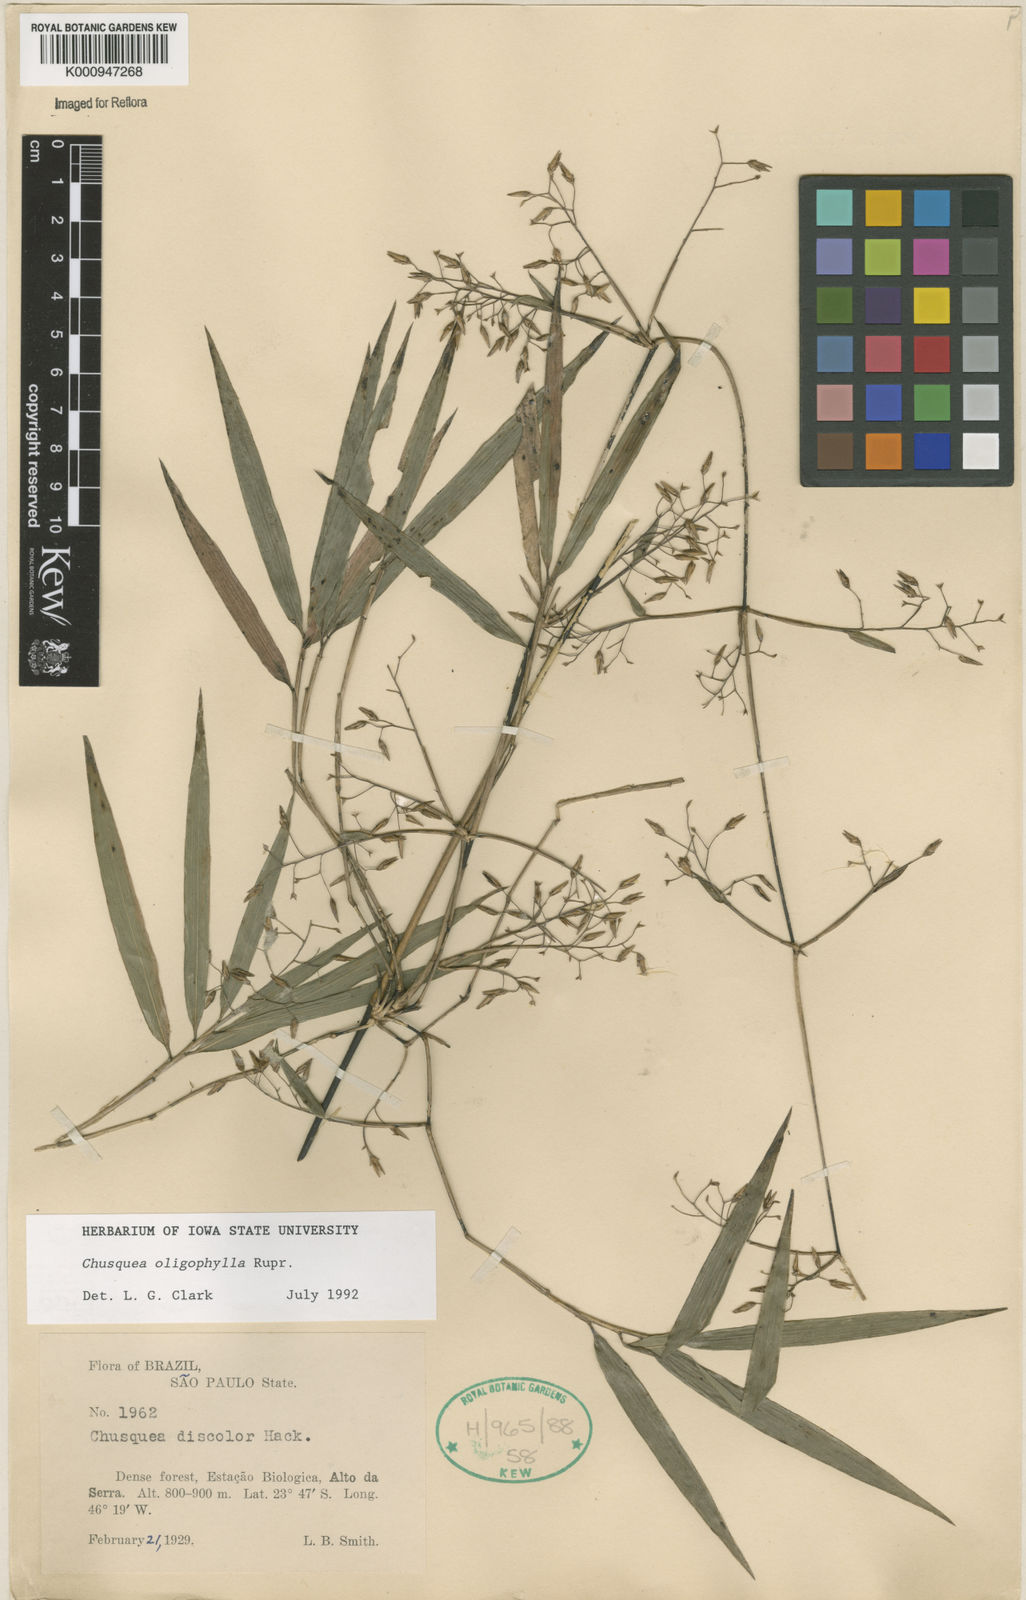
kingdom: Plantae
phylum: Tracheophyta
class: Liliopsida
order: Poales
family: Poaceae
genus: Chusquea
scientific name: Chusquea oligophylla
